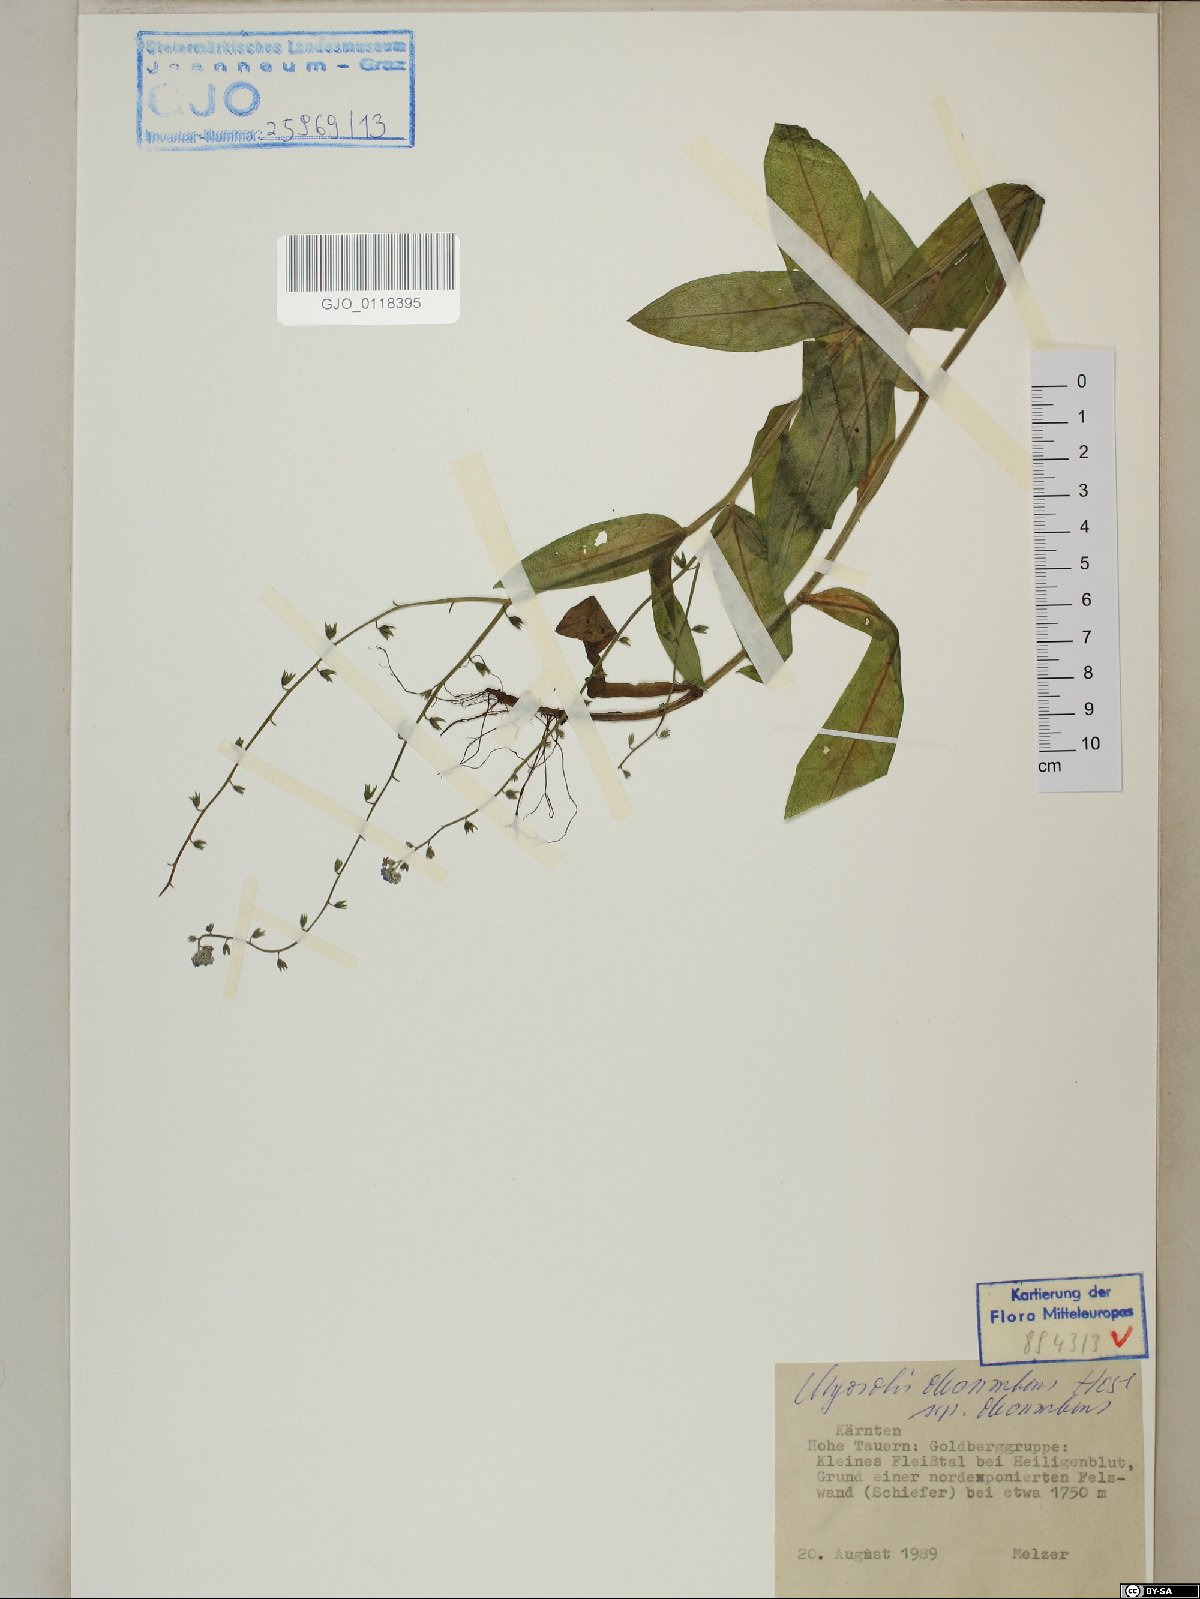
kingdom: Plantae
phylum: Tracheophyta
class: Magnoliopsida
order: Boraginales
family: Boraginaceae
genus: Myosotis
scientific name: Myosotis decumbens
